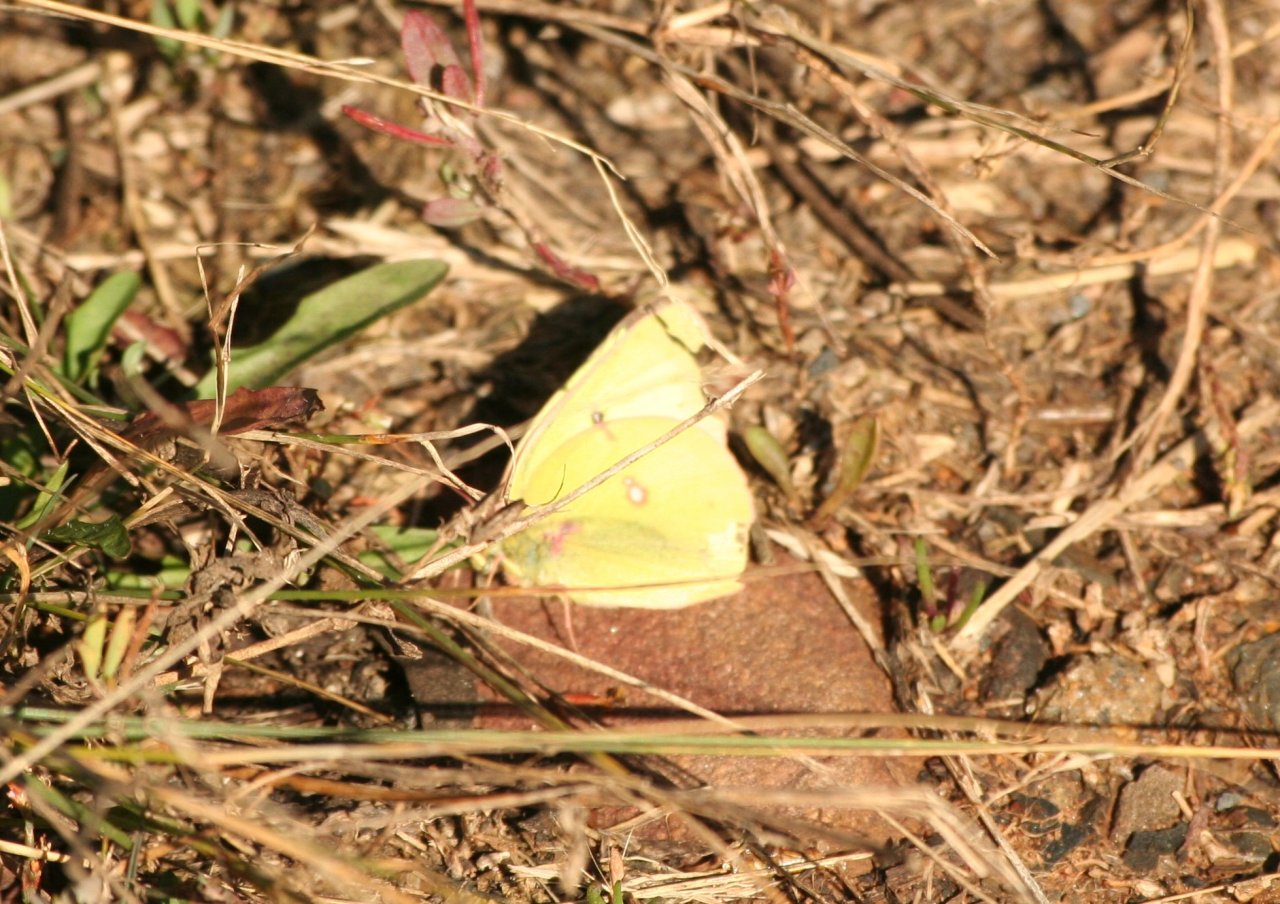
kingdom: Animalia
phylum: Arthropoda
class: Insecta
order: Lepidoptera
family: Pieridae
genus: Colias
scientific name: Colias philodice
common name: Clouded Sulphur
